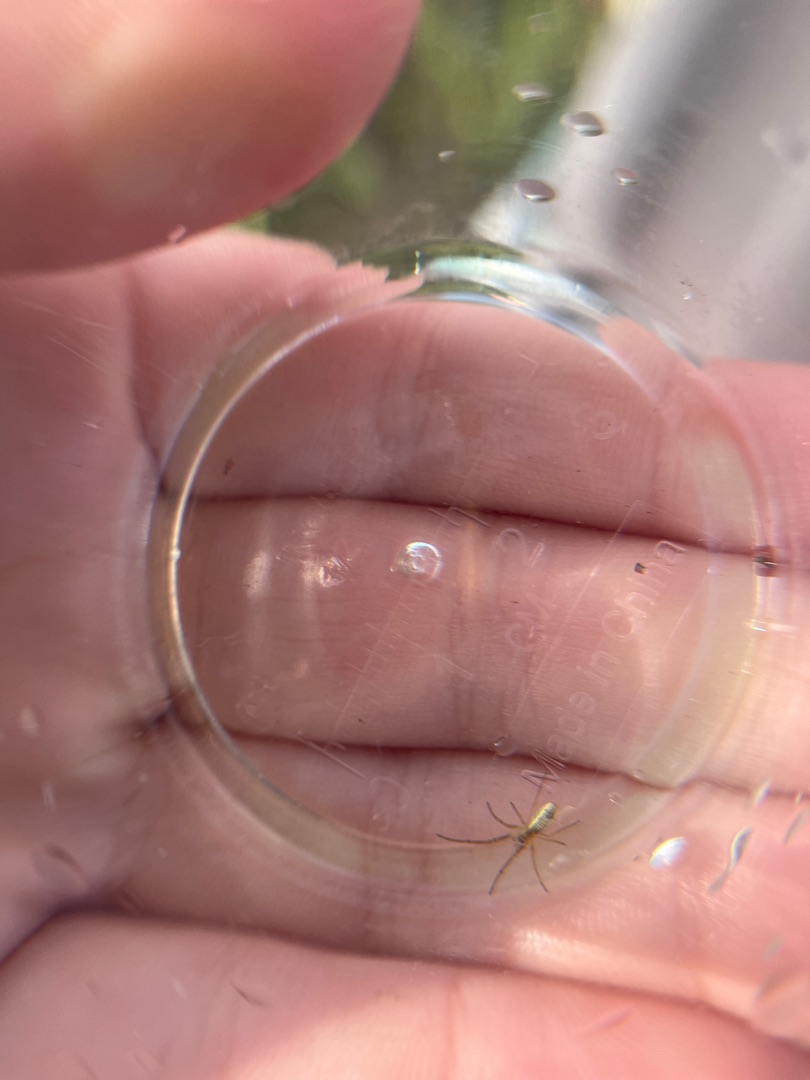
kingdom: Animalia
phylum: Arthropoda
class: Arachnida
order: Araneae
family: Tetragnathidae
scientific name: Tetragnathidae
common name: Hulhjuledderkopper
